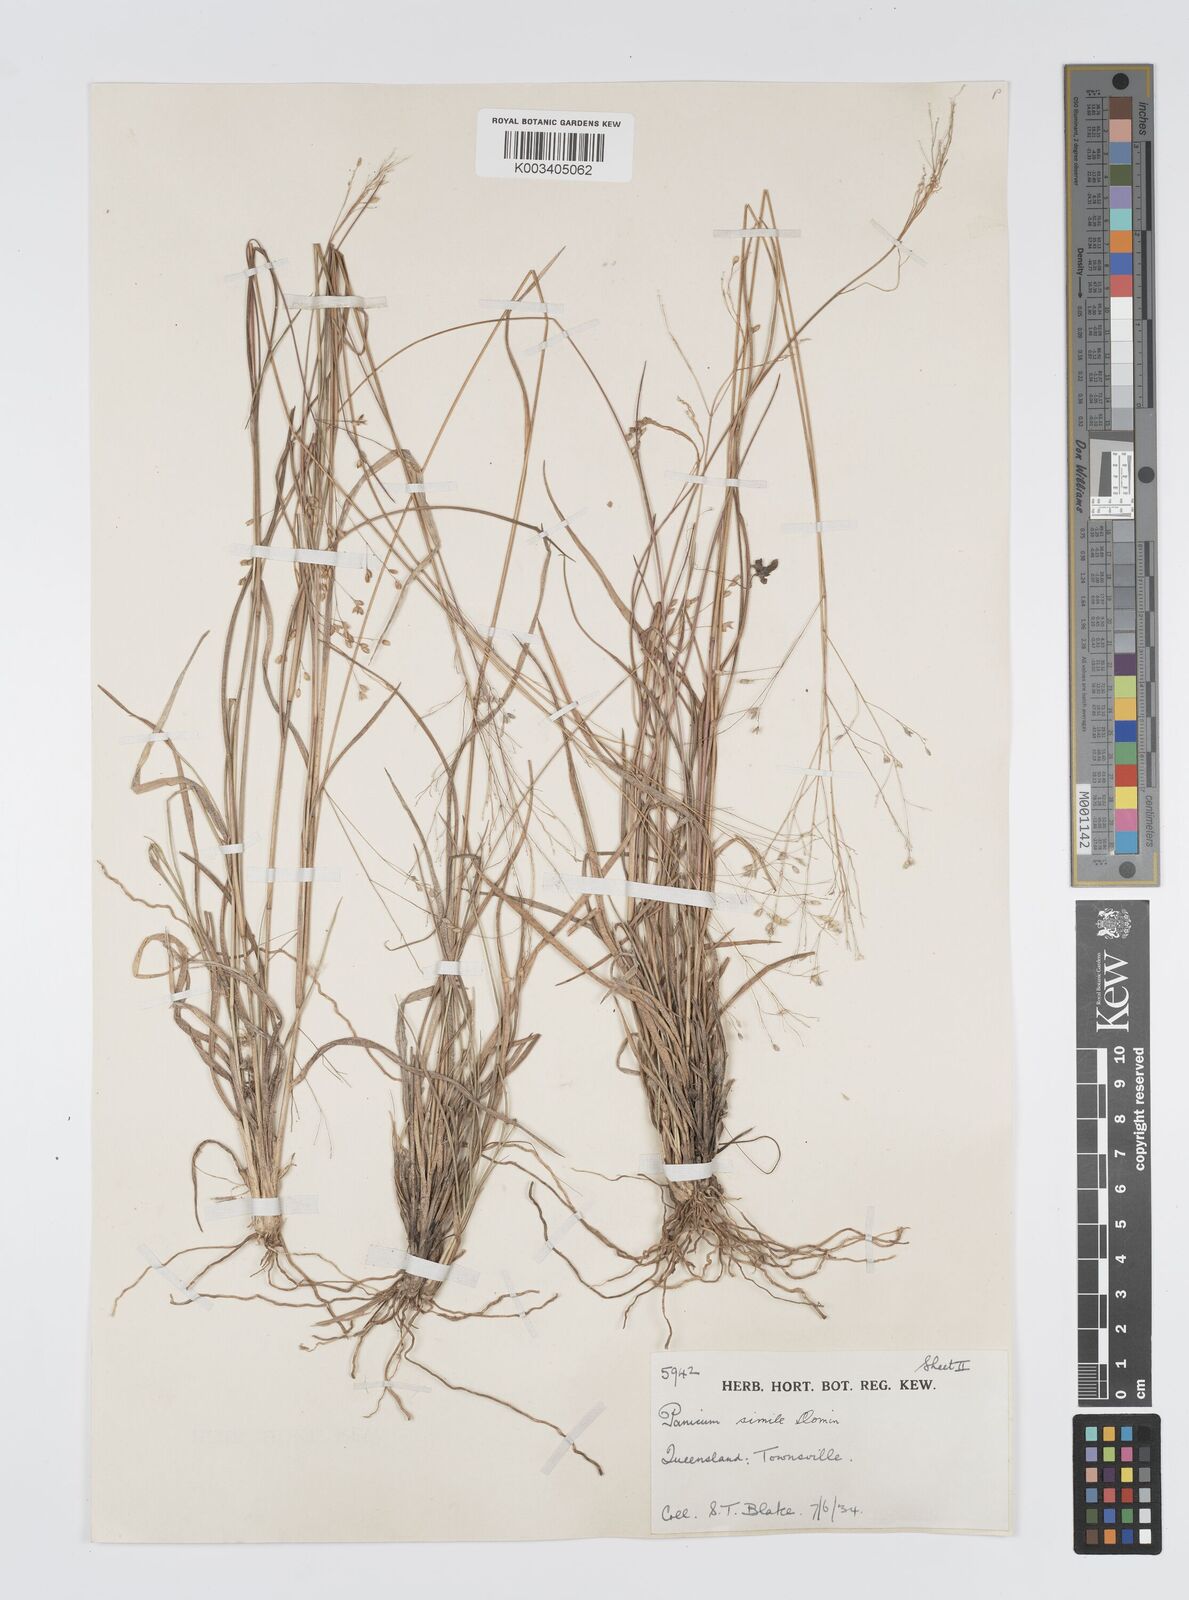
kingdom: Plantae
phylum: Tracheophyta
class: Liliopsida
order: Poales
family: Poaceae
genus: Panicum
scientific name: Panicum simile
